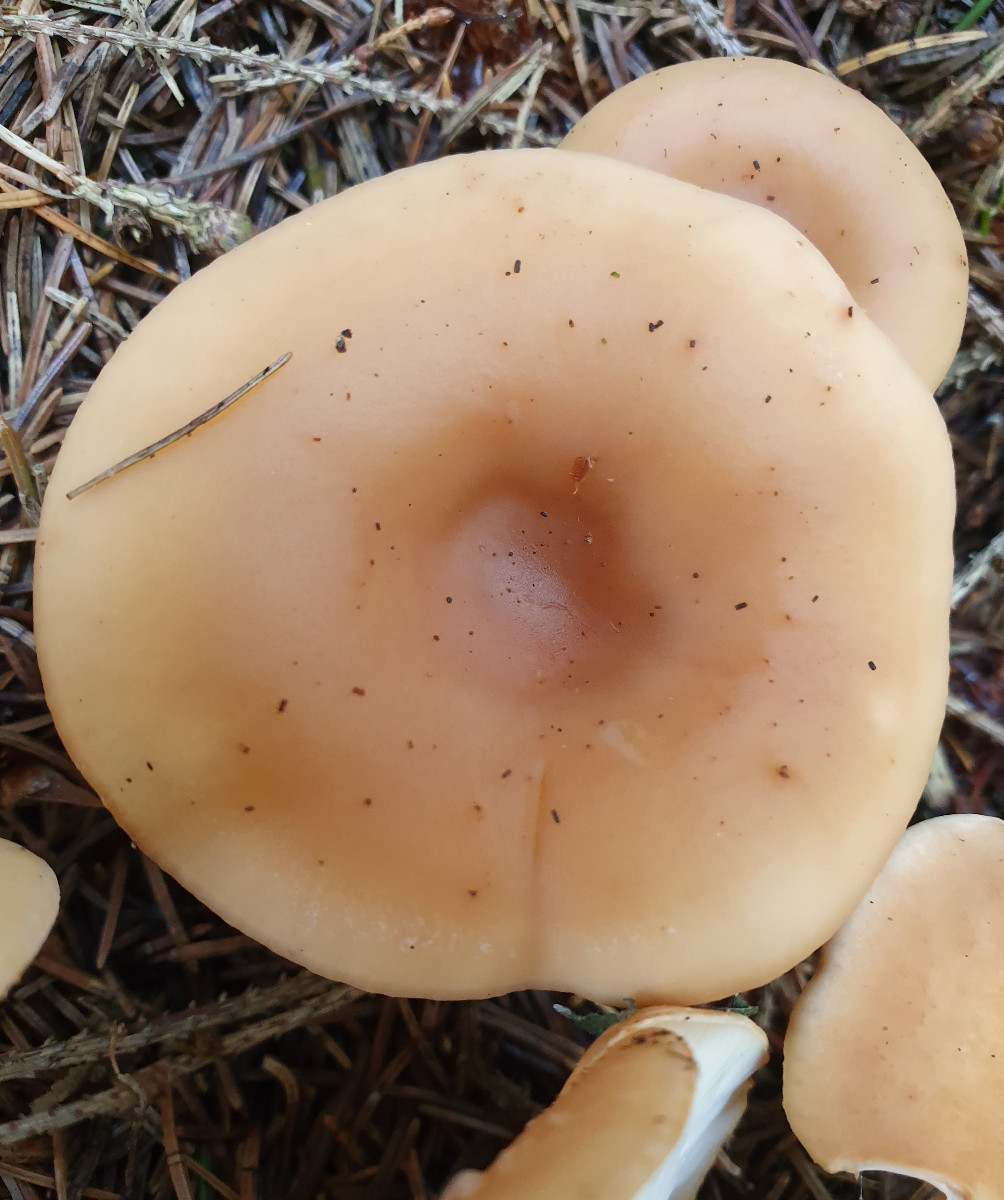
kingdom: Fungi
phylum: Basidiomycota
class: Agaricomycetes
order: Agaricales
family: Tricholomataceae
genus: Paralepista
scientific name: Paralepista flaccida
